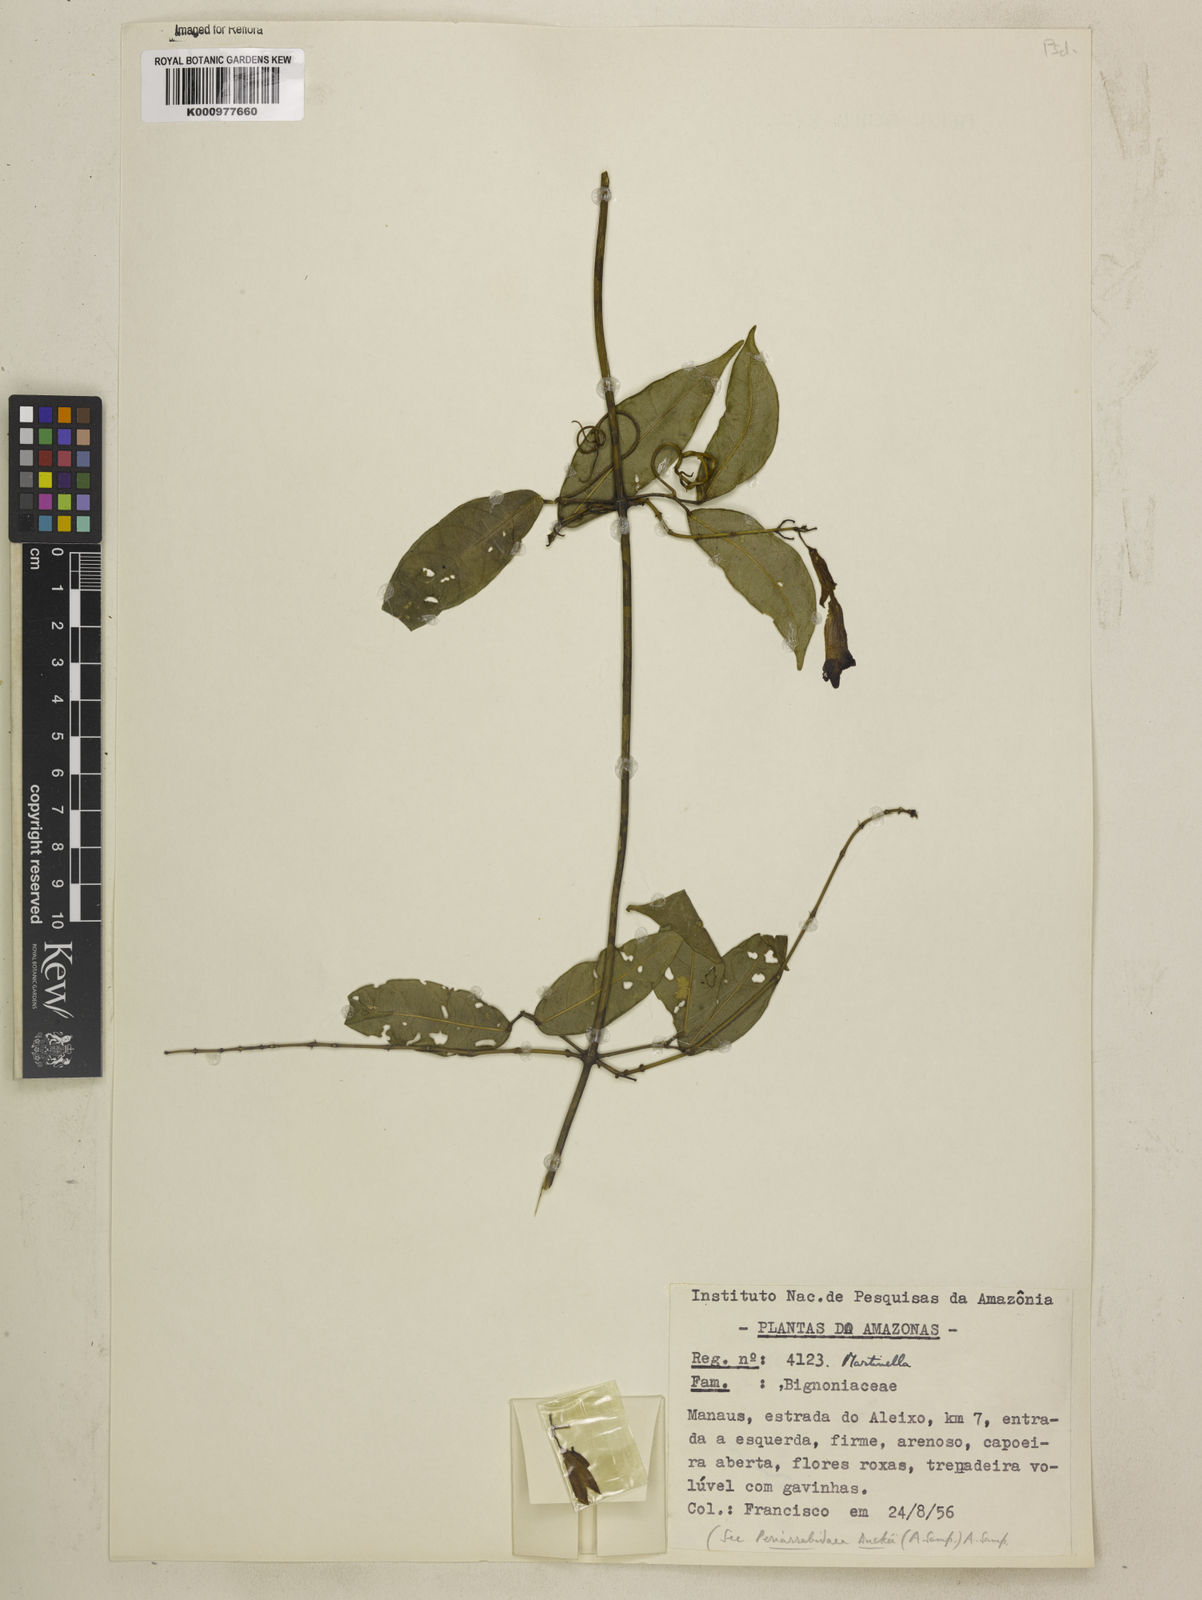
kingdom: Animalia
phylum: Arthropoda
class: Insecta
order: Coleoptera
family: Chrysomelidae
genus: Martinella
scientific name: Martinella obovata
